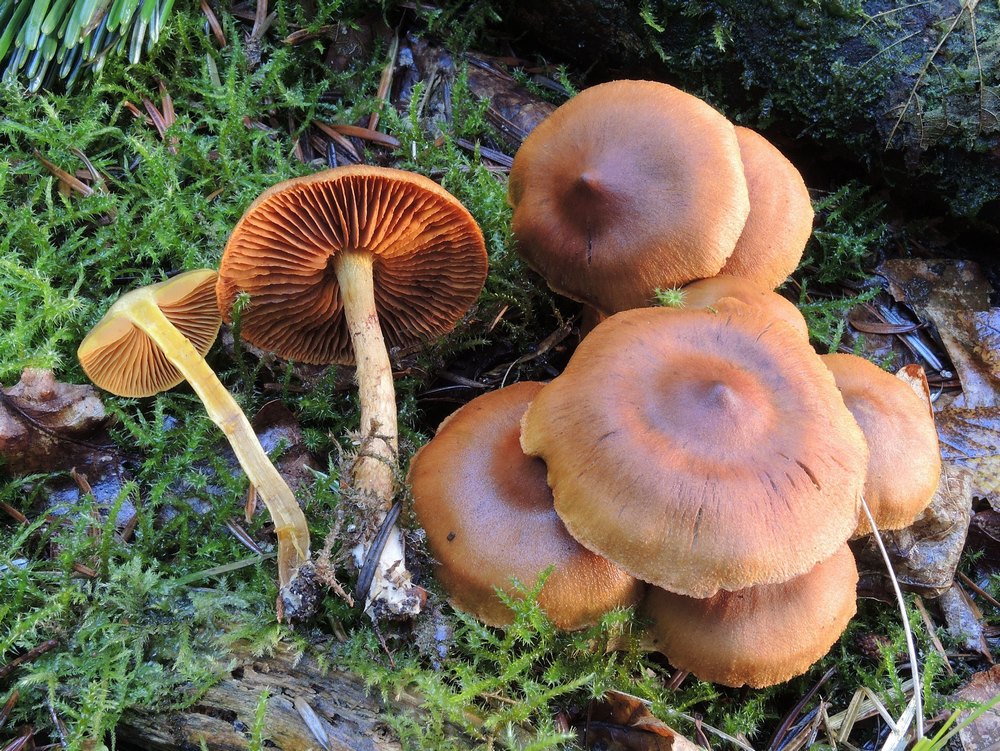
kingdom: Fungi
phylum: Basidiomycota
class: Agaricomycetes
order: Agaricales
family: Cortinariaceae
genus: Cortinarius
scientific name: Cortinarius cinnamomeus
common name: kanel-slørhat
